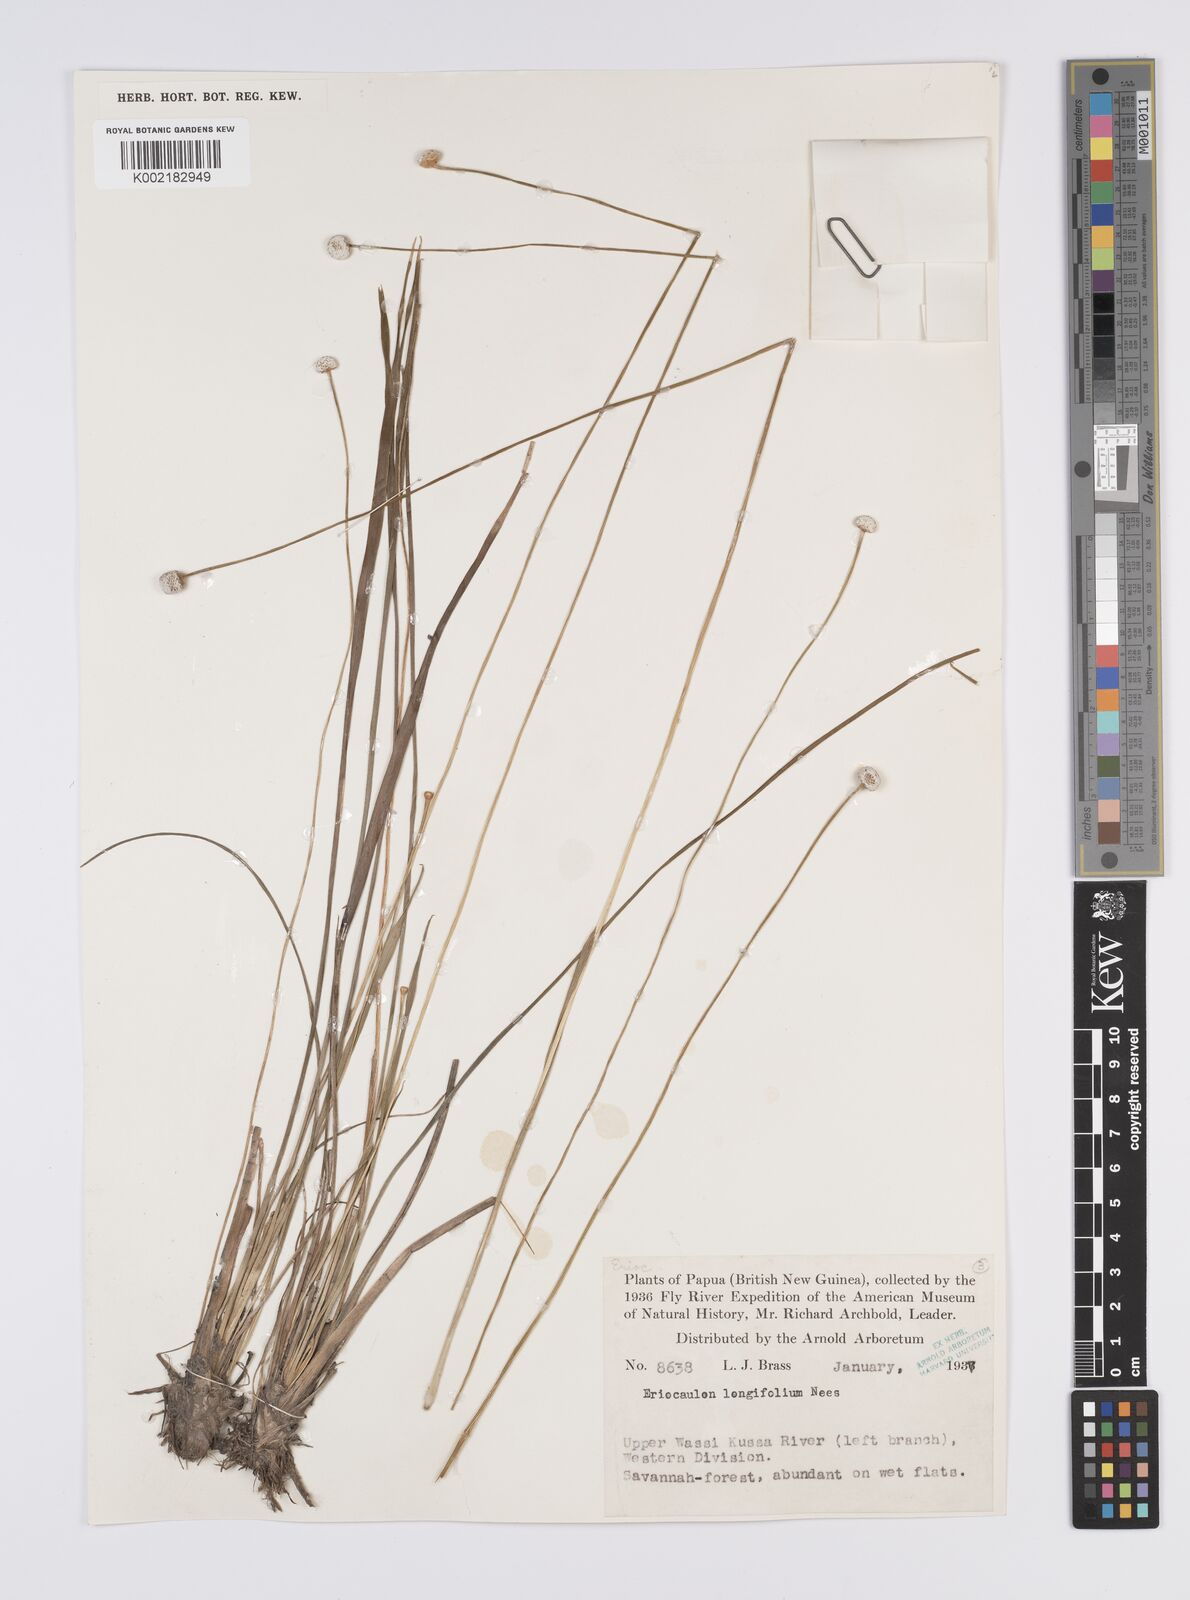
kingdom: Plantae
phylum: Tracheophyta
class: Liliopsida
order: Poales
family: Eriocaulaceae
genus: Eriocaulon
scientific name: Eriocaulon australe
